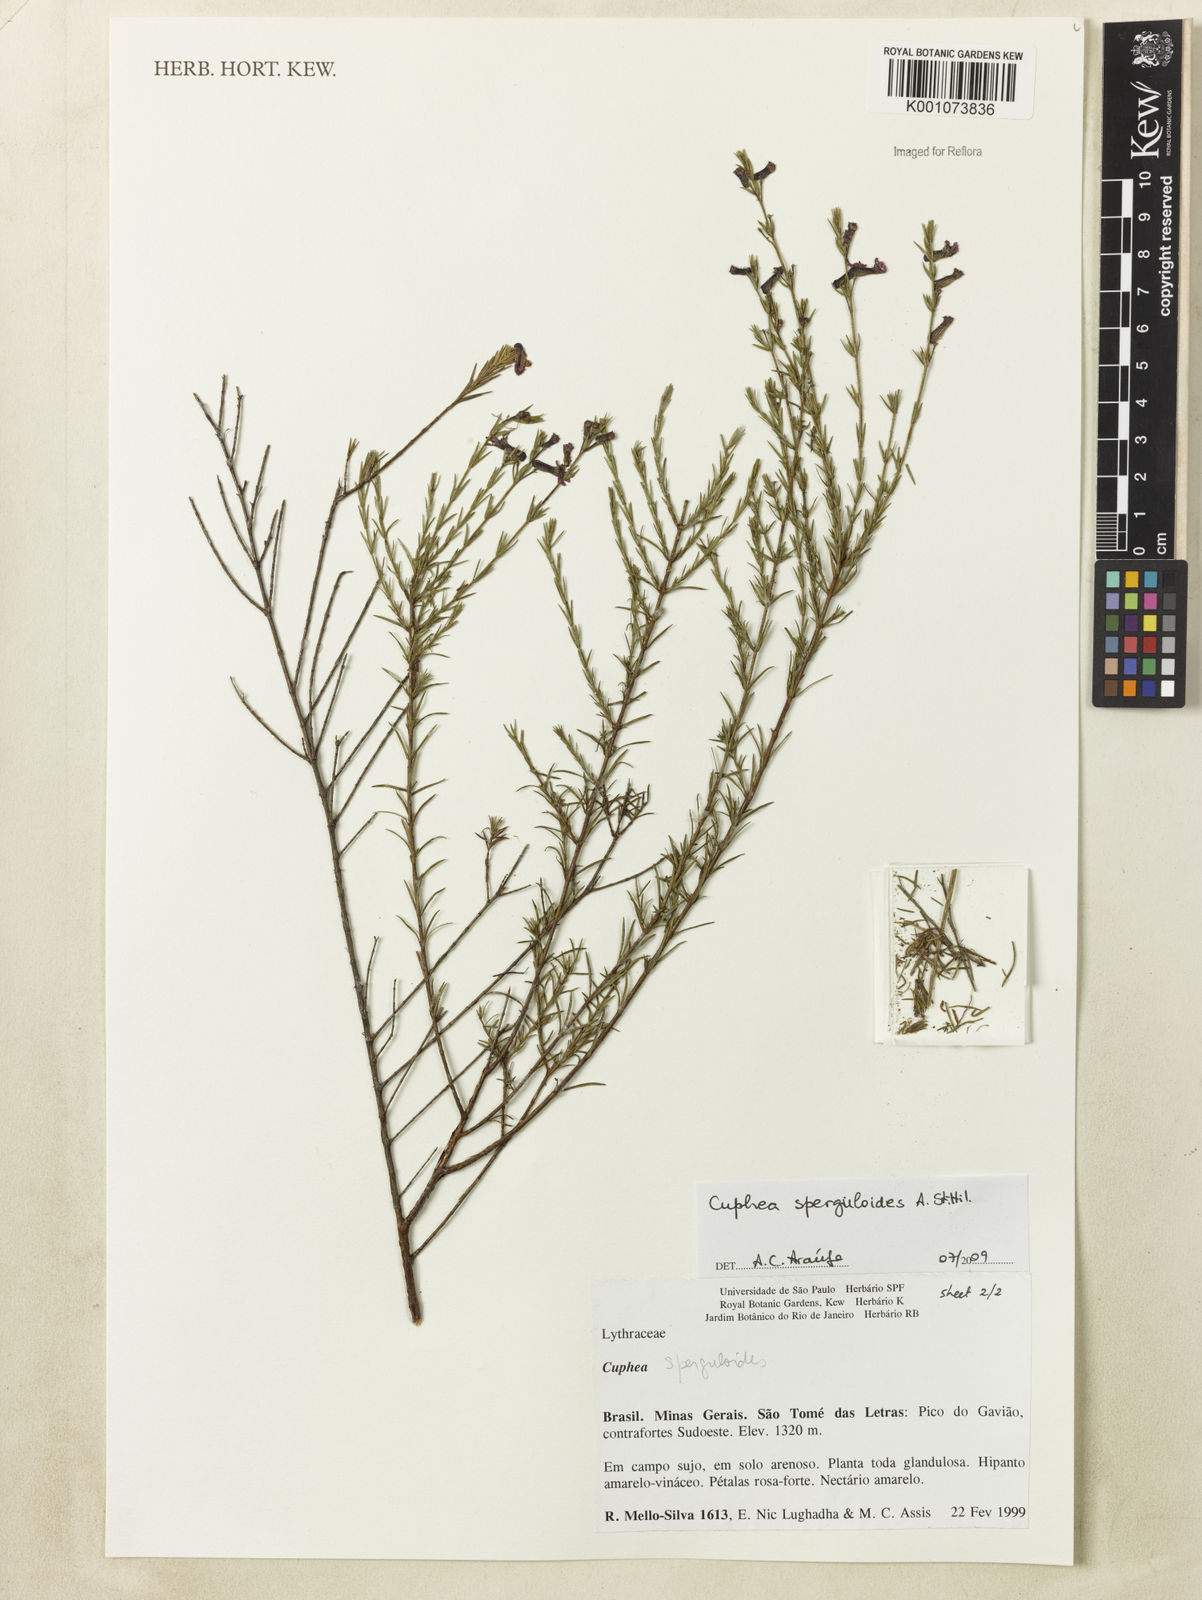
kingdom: Plantae
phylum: Tracheophyta
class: Magnoliopsida
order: Myrtales
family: Lythraceae
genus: Cuphea
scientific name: Cuphea sperguloides
